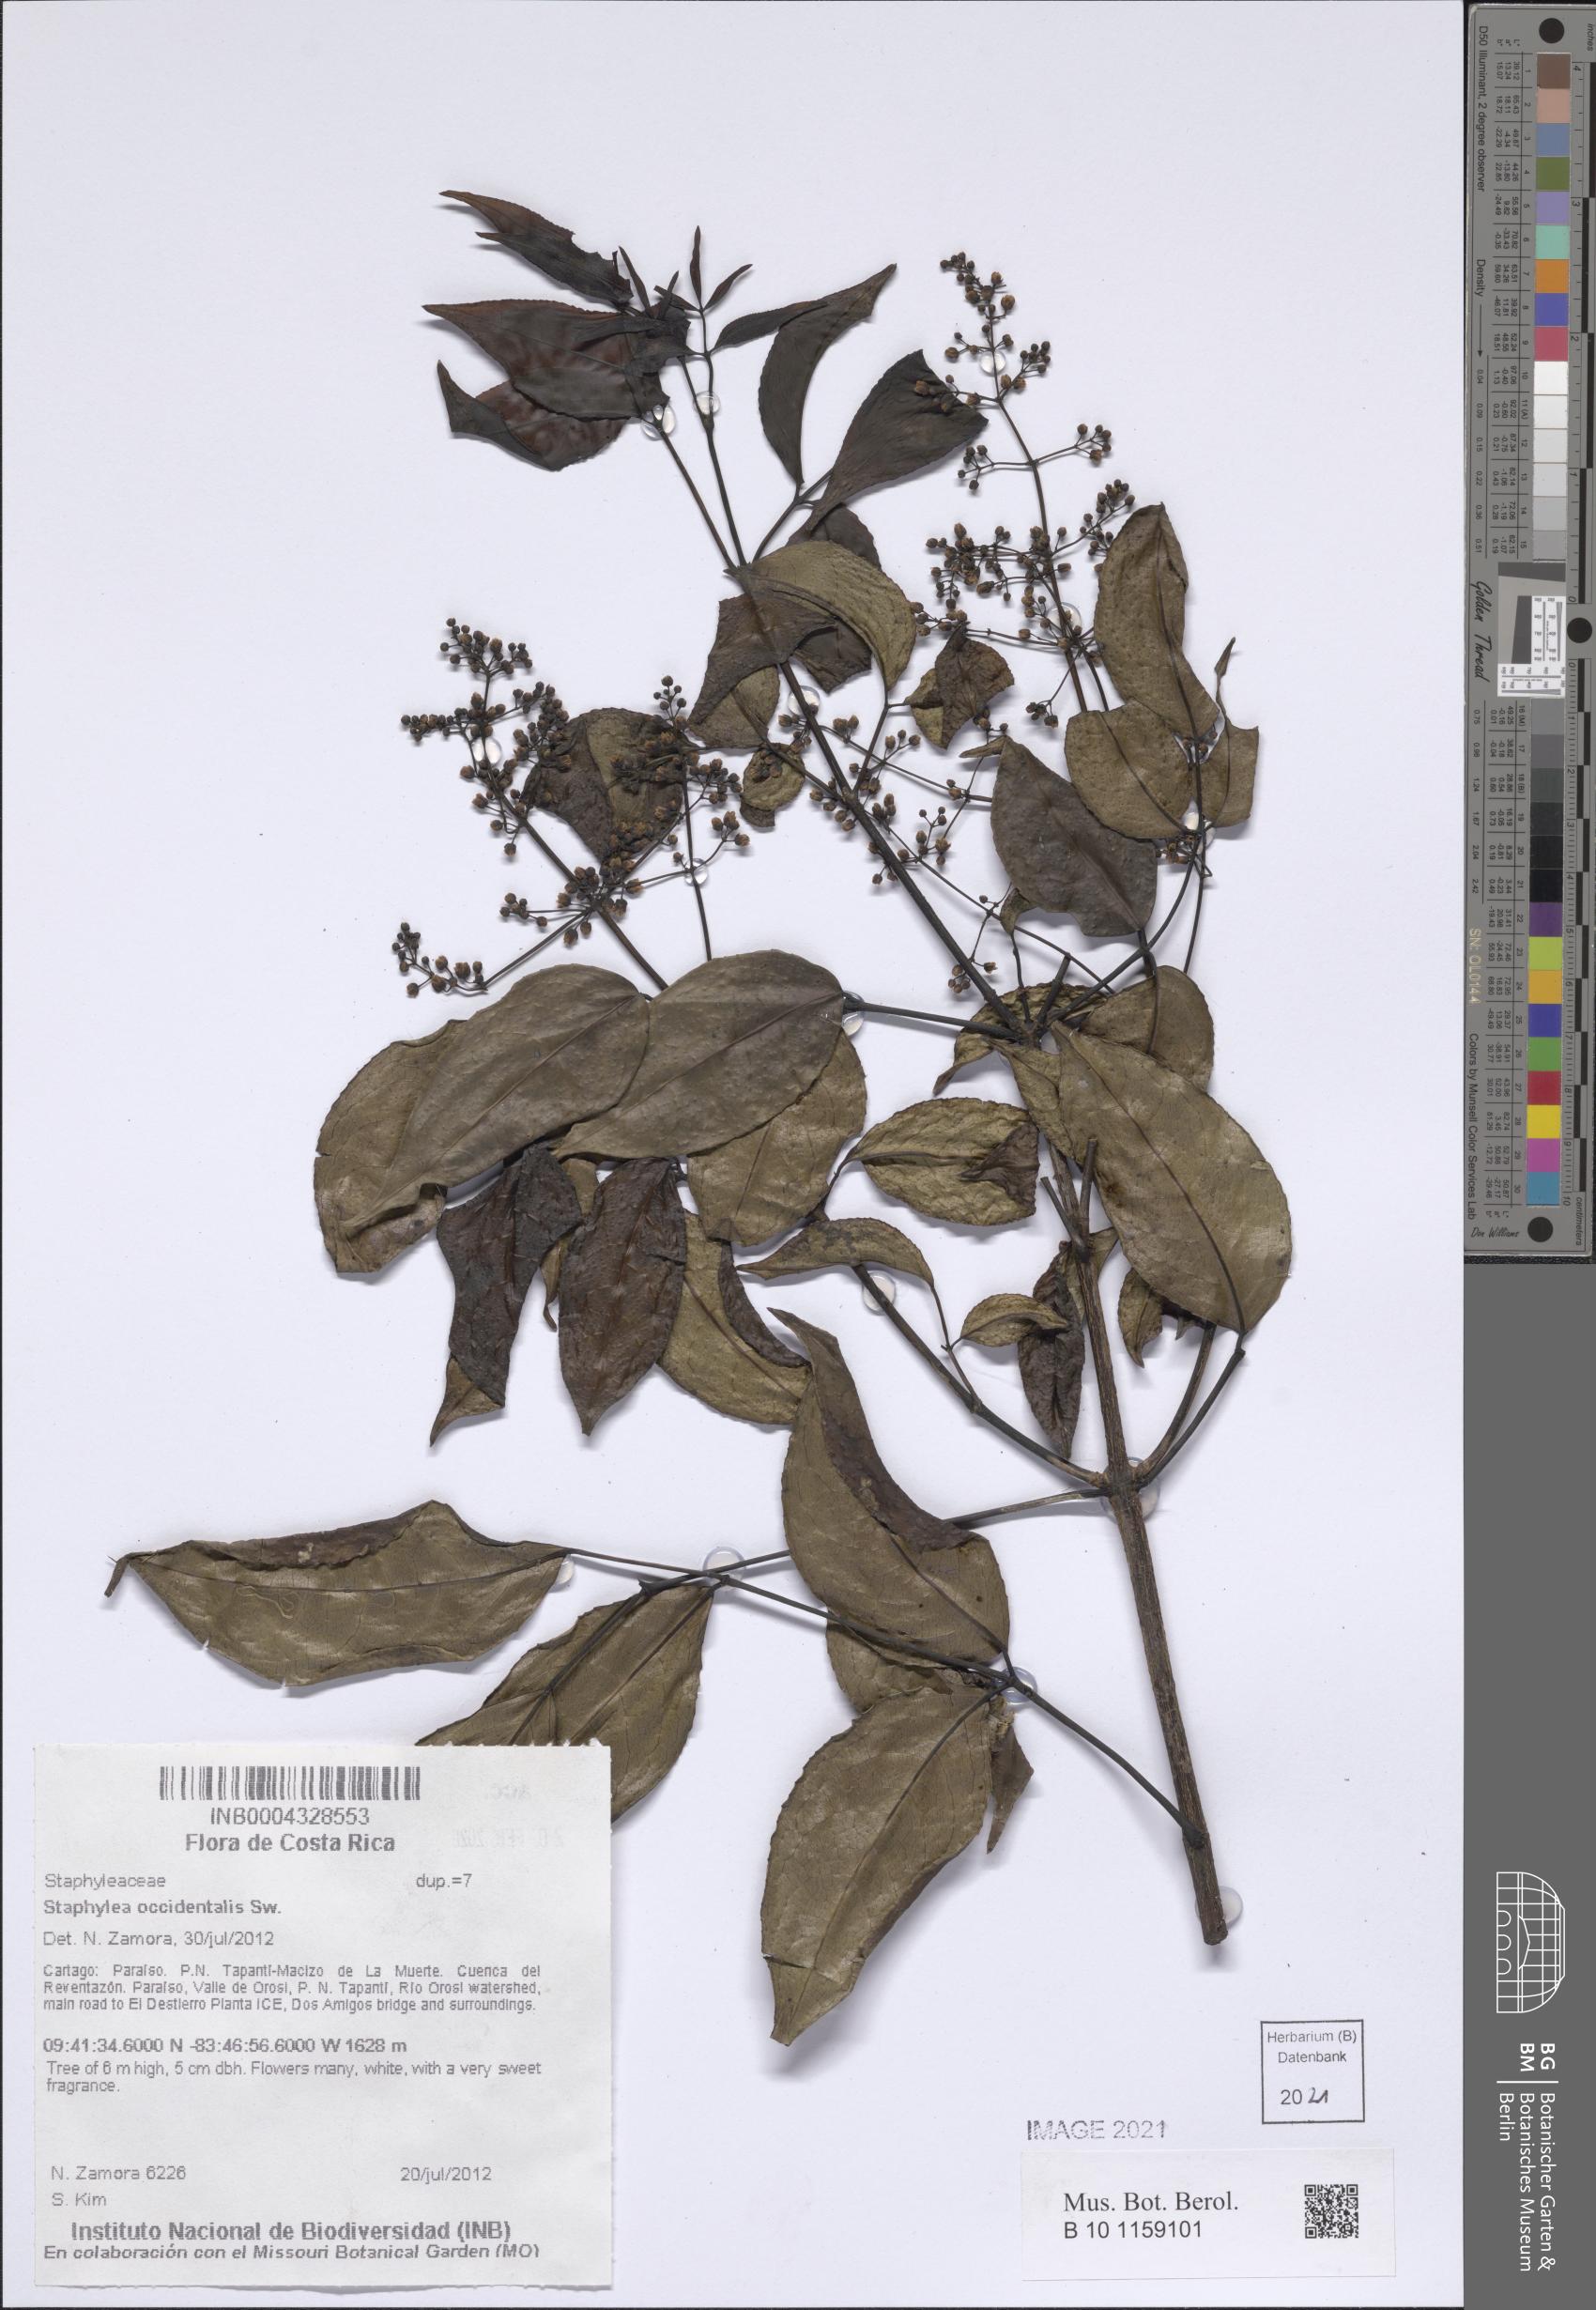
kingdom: Plantae
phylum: Tracheophyta
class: Magnoliopsida
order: Crossosomatales
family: Staphyleaceae
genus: Turpinia
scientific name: Turpinia occidentalis
